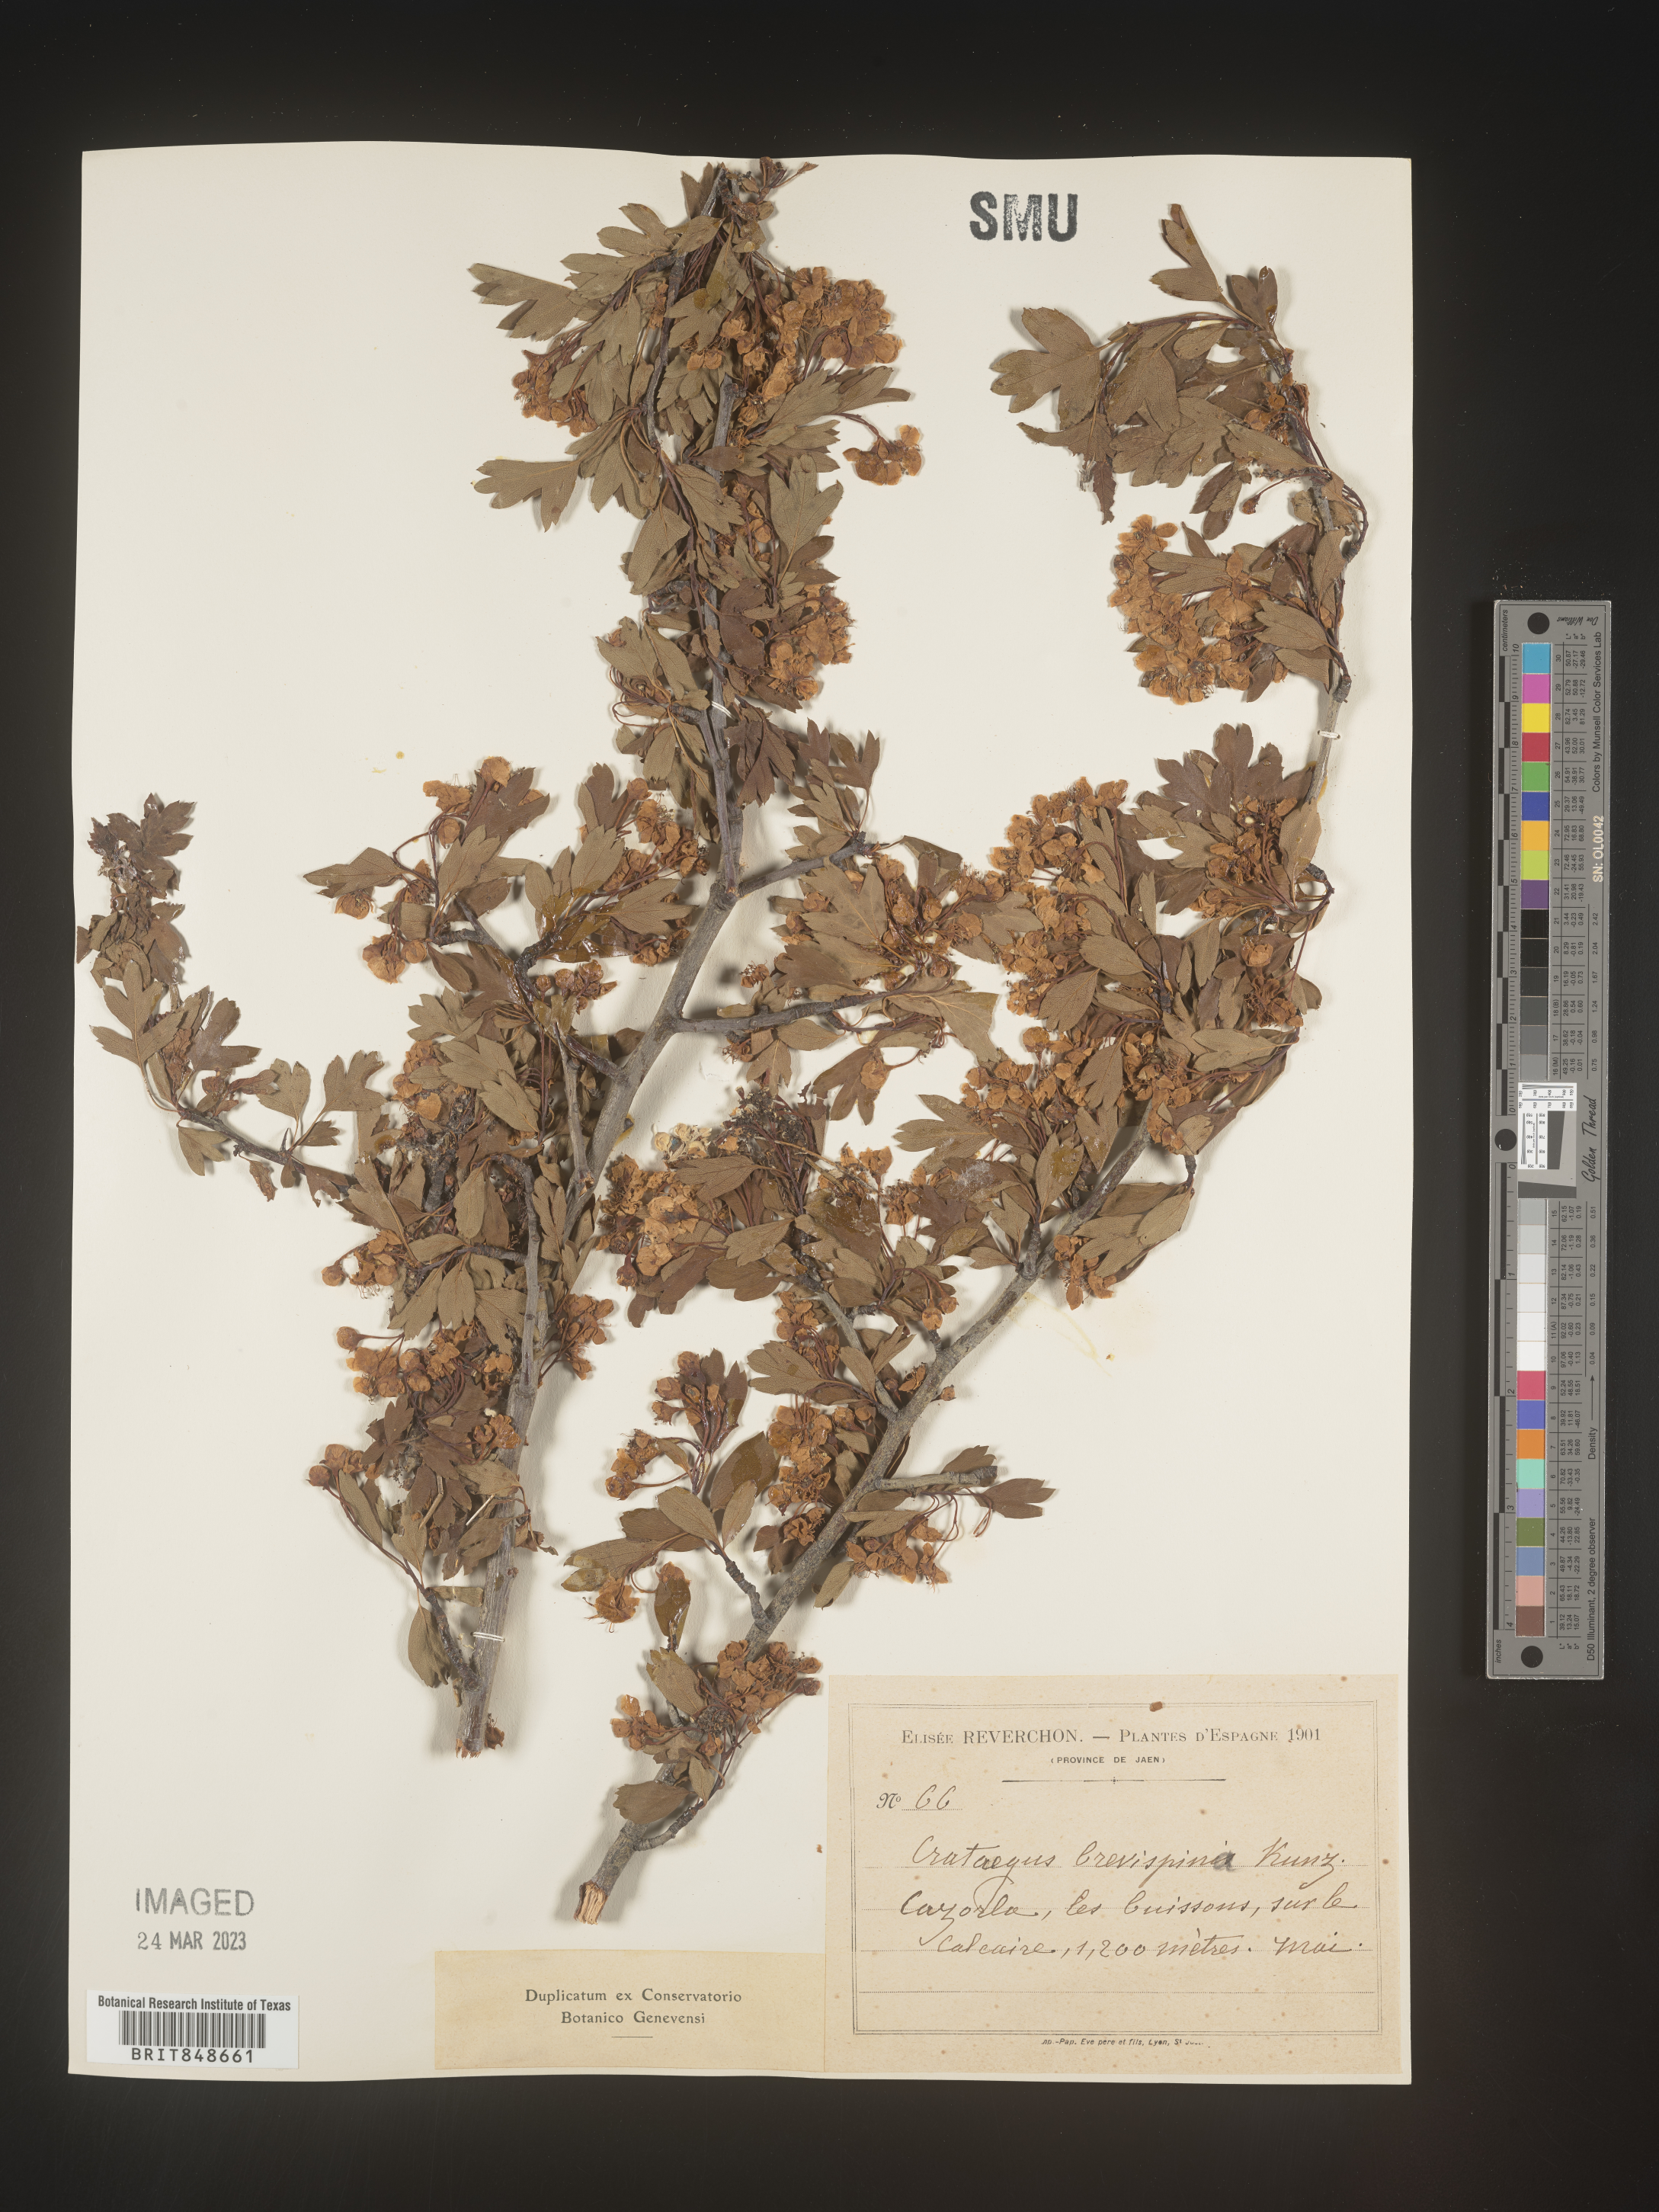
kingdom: Plantae
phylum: Tracheophyta
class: Magnoliopsida
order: Rosales
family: Rosaceae
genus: Crataegus
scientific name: Crataegus
